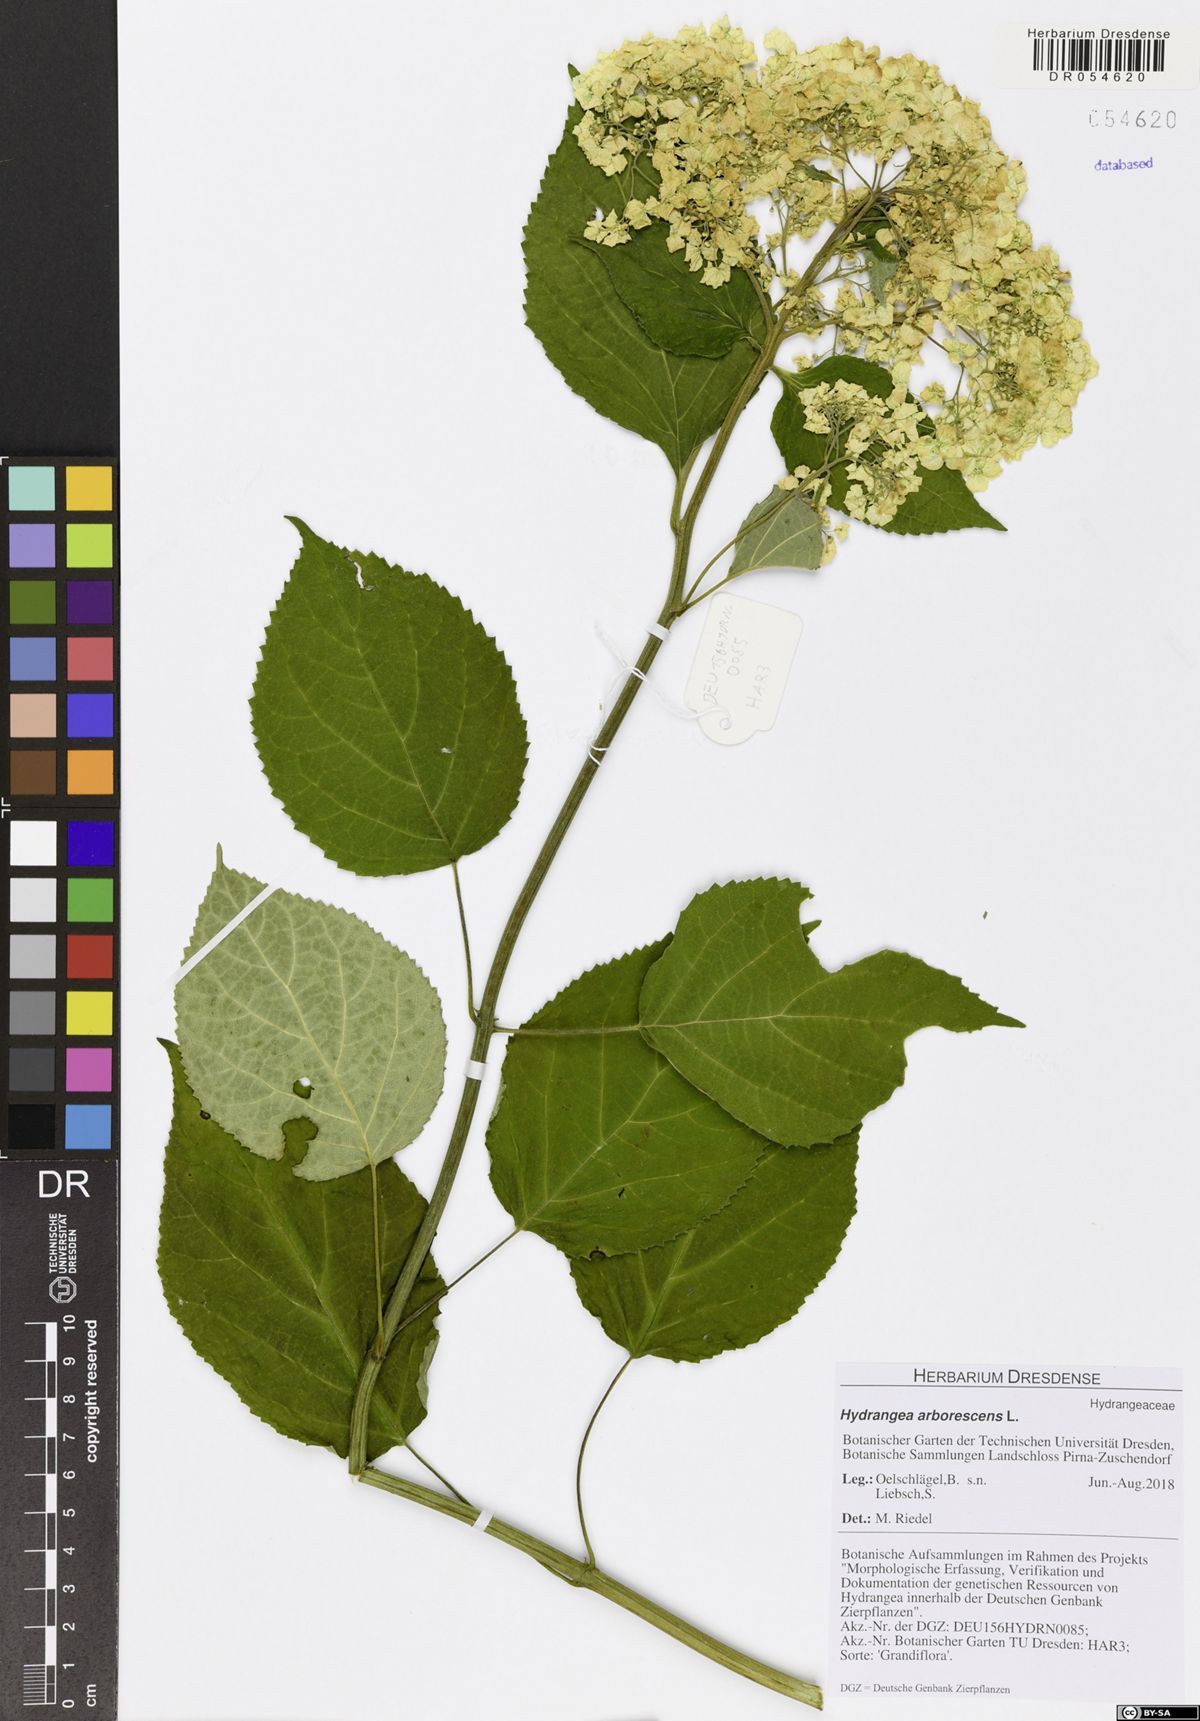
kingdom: Plantae
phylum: Tracheophyta
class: Magnoliopsida
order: Cornales
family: Hydrangeaceae
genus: Hydrangea
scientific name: Hydrangea arborescens
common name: Sevenbark
